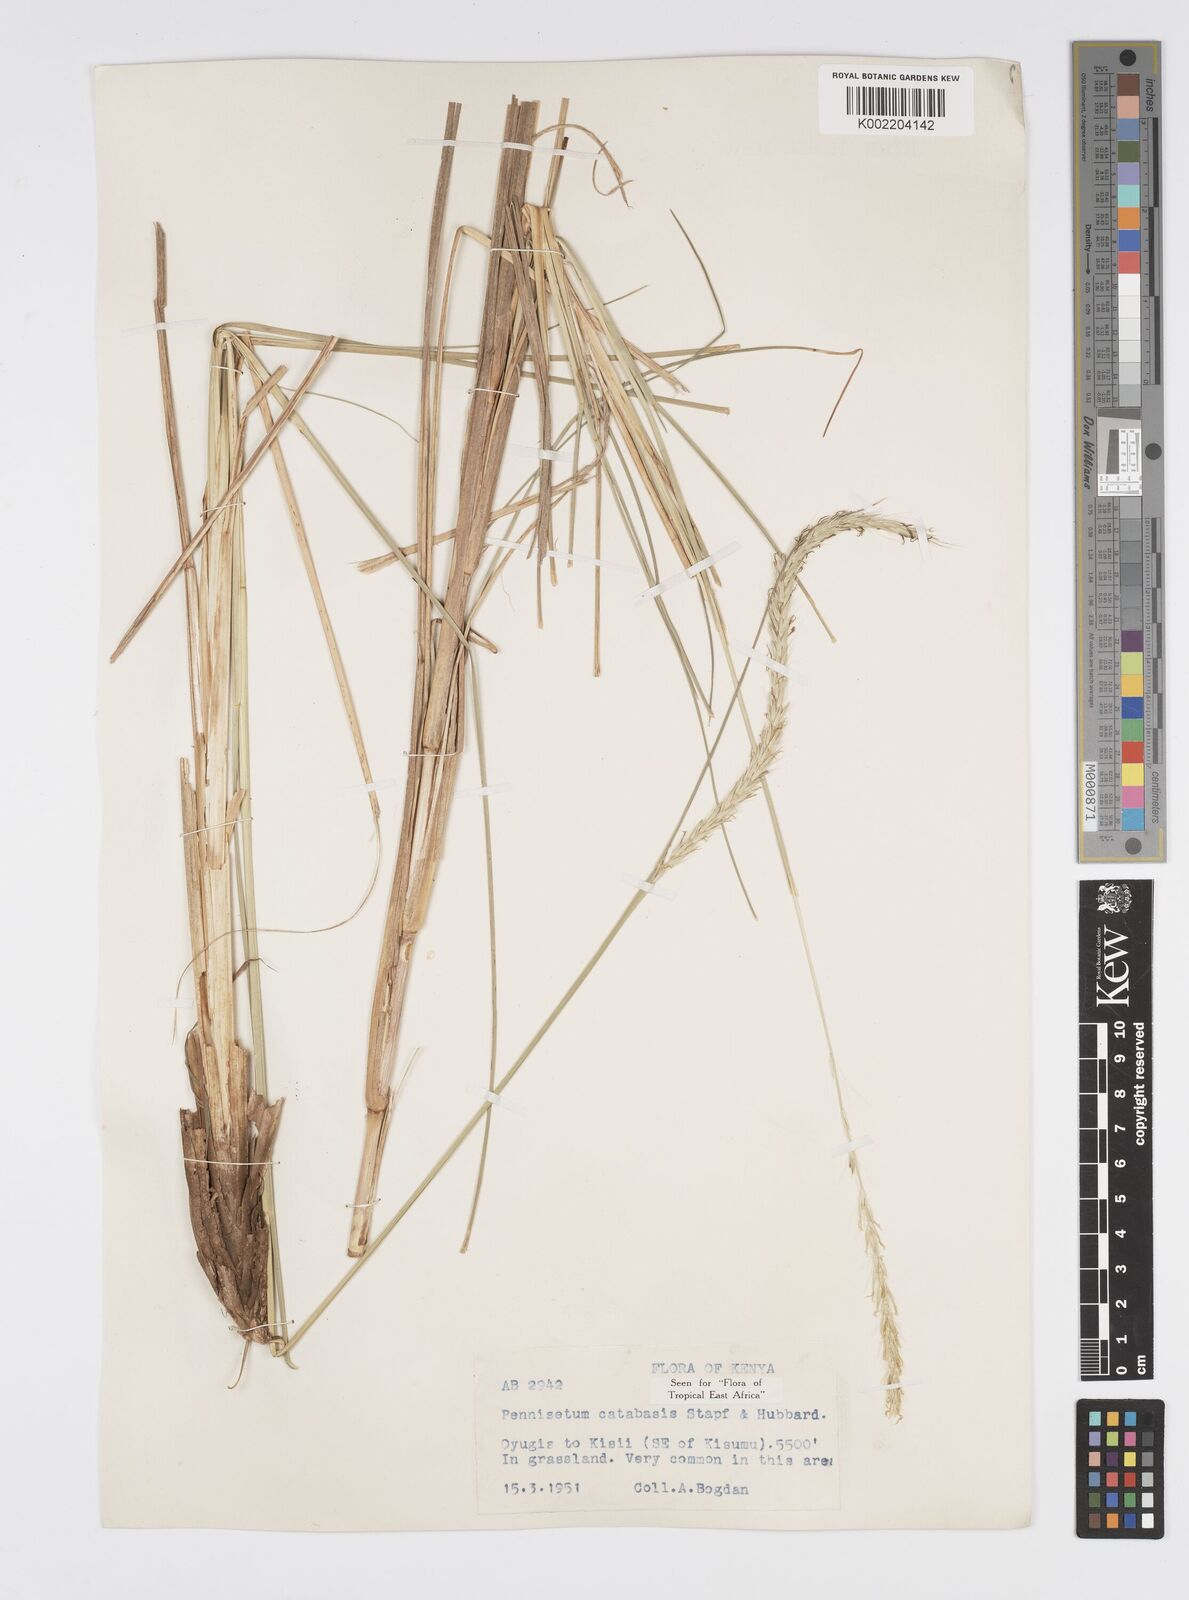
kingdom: Plantae
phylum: Tracheophyta
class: Liliopsida
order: Poales
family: Poaceae
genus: Cenchrus
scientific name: Cenchrus Pennisetum spec
